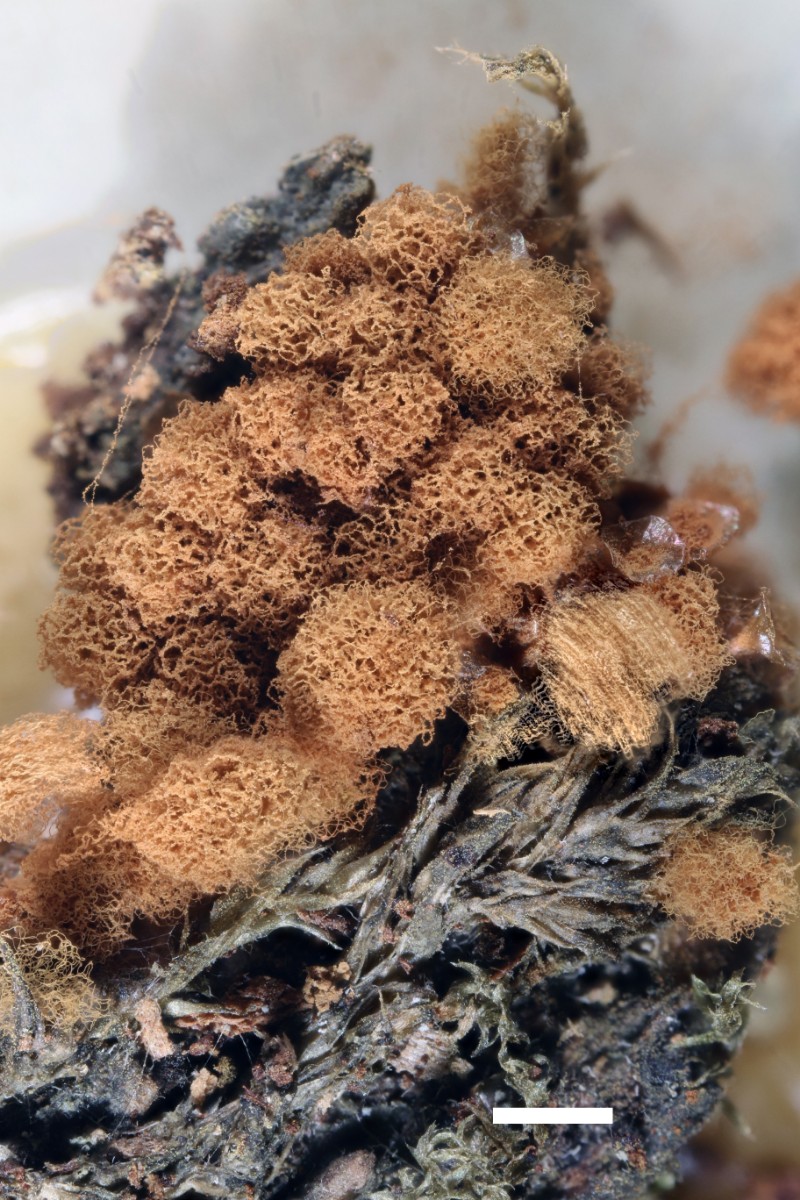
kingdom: Protozoa
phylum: Mycetozoa
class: Myxomycetes
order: Trichiales
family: Arcyriaceae
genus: Arcyria
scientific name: Arcyria ferruginea
